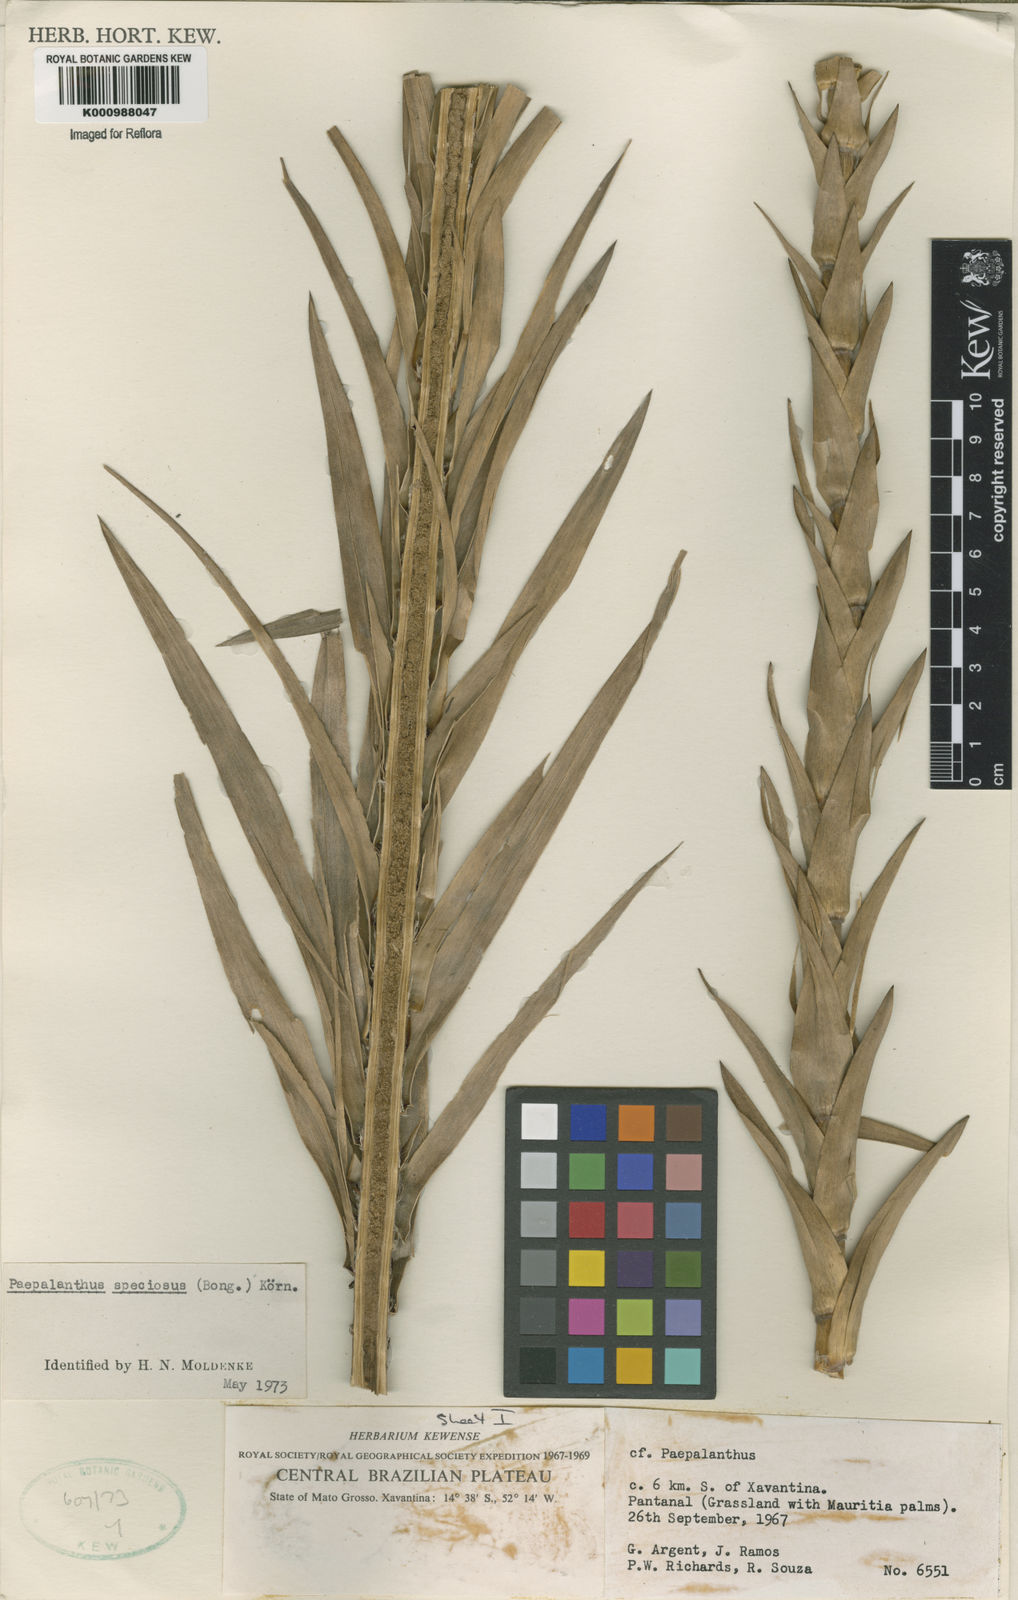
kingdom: Plantae
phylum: Tracheophyta
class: Liliopsida
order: Poales
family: Eriocaulaceae
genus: Paepalanthus
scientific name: Paepalanthus
